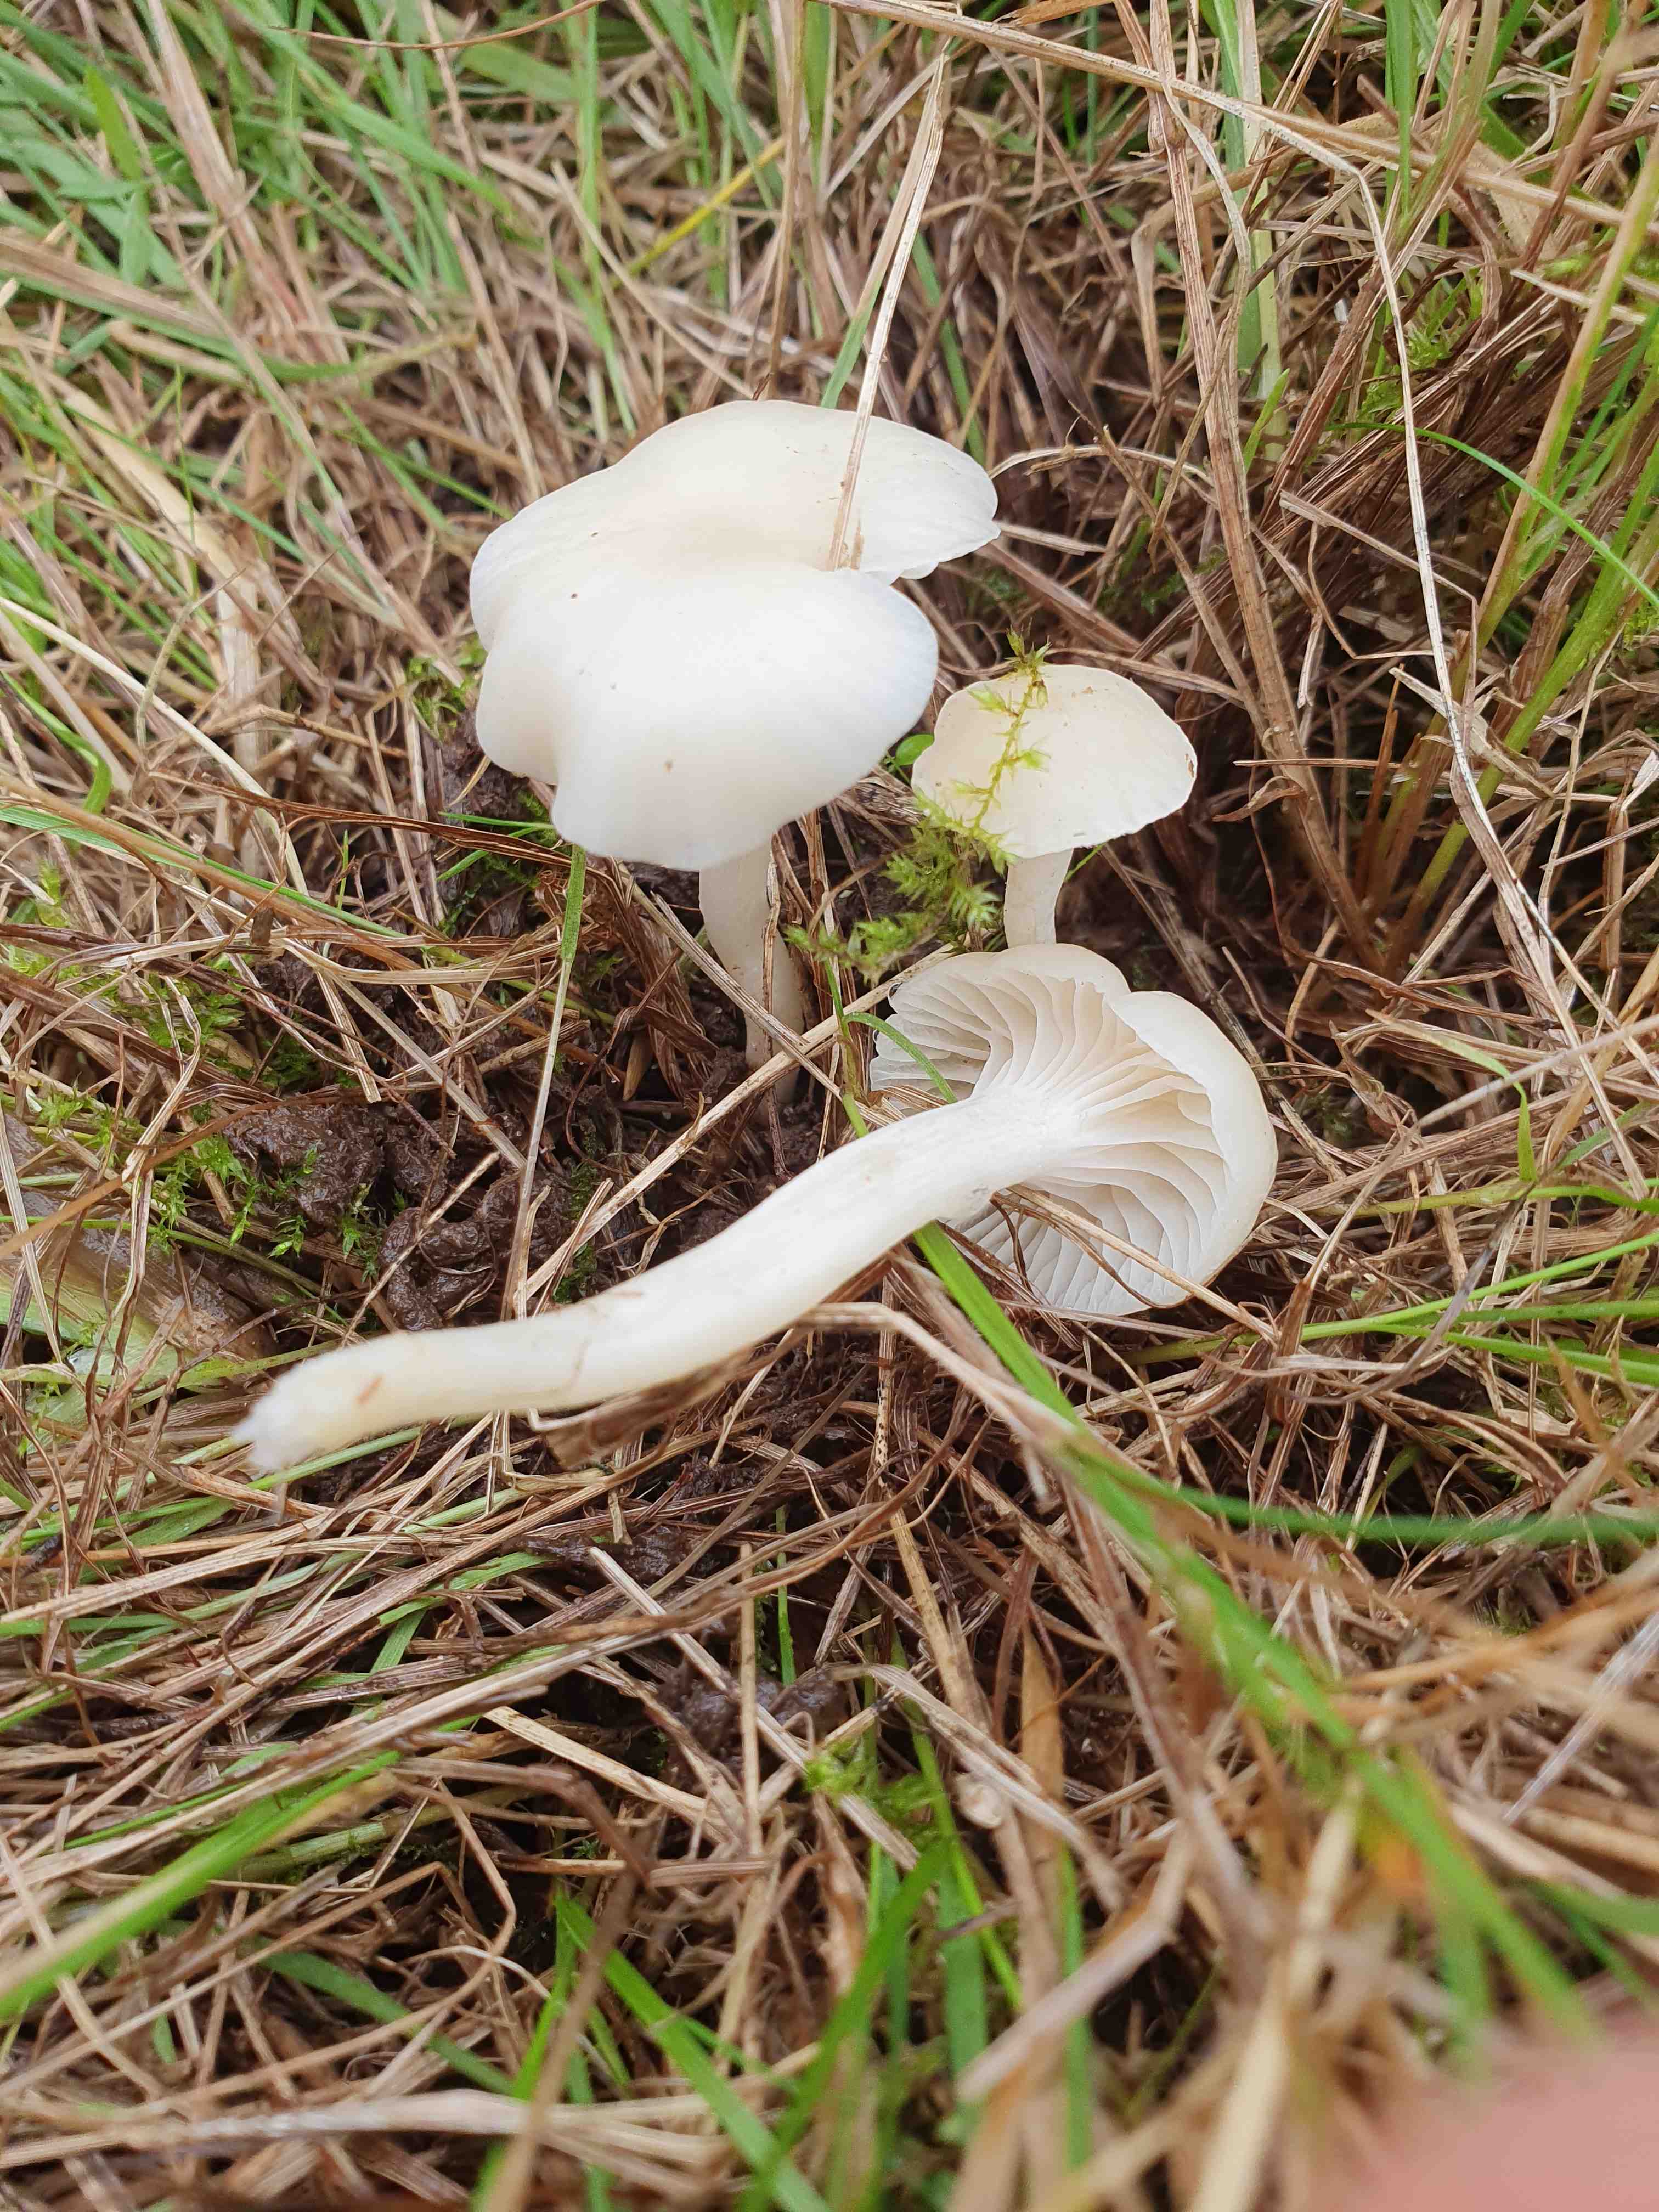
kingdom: Fungi
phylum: Basidiomycota
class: Agaricomycetes
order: Agaricales
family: Hygrophoraceae
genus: Cuphophyllus
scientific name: Cuphophyllus virgineus
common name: snehvid vokshat
